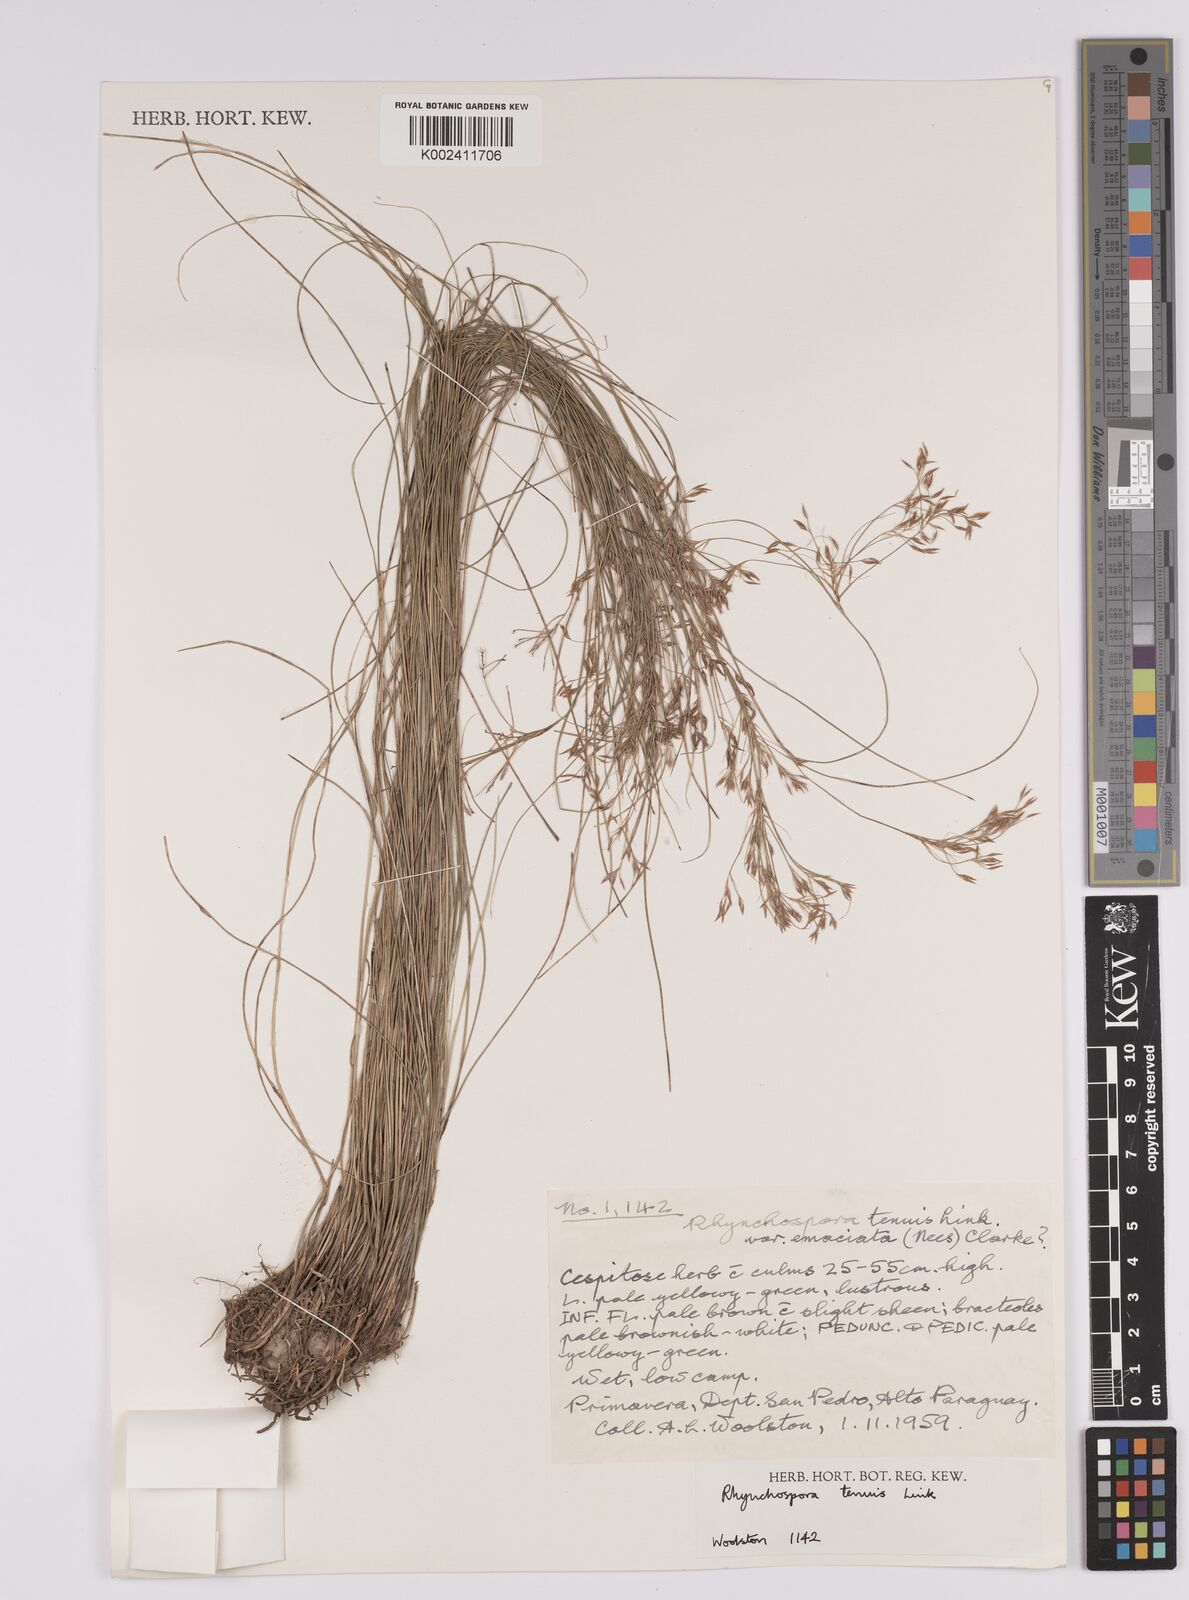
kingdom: Plantae
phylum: Tracheophyta
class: Liliopsida
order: Poales
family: Cyperaceae
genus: Rhynchospora
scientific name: Rhynchospora tenuis
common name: Quill beaksedge
